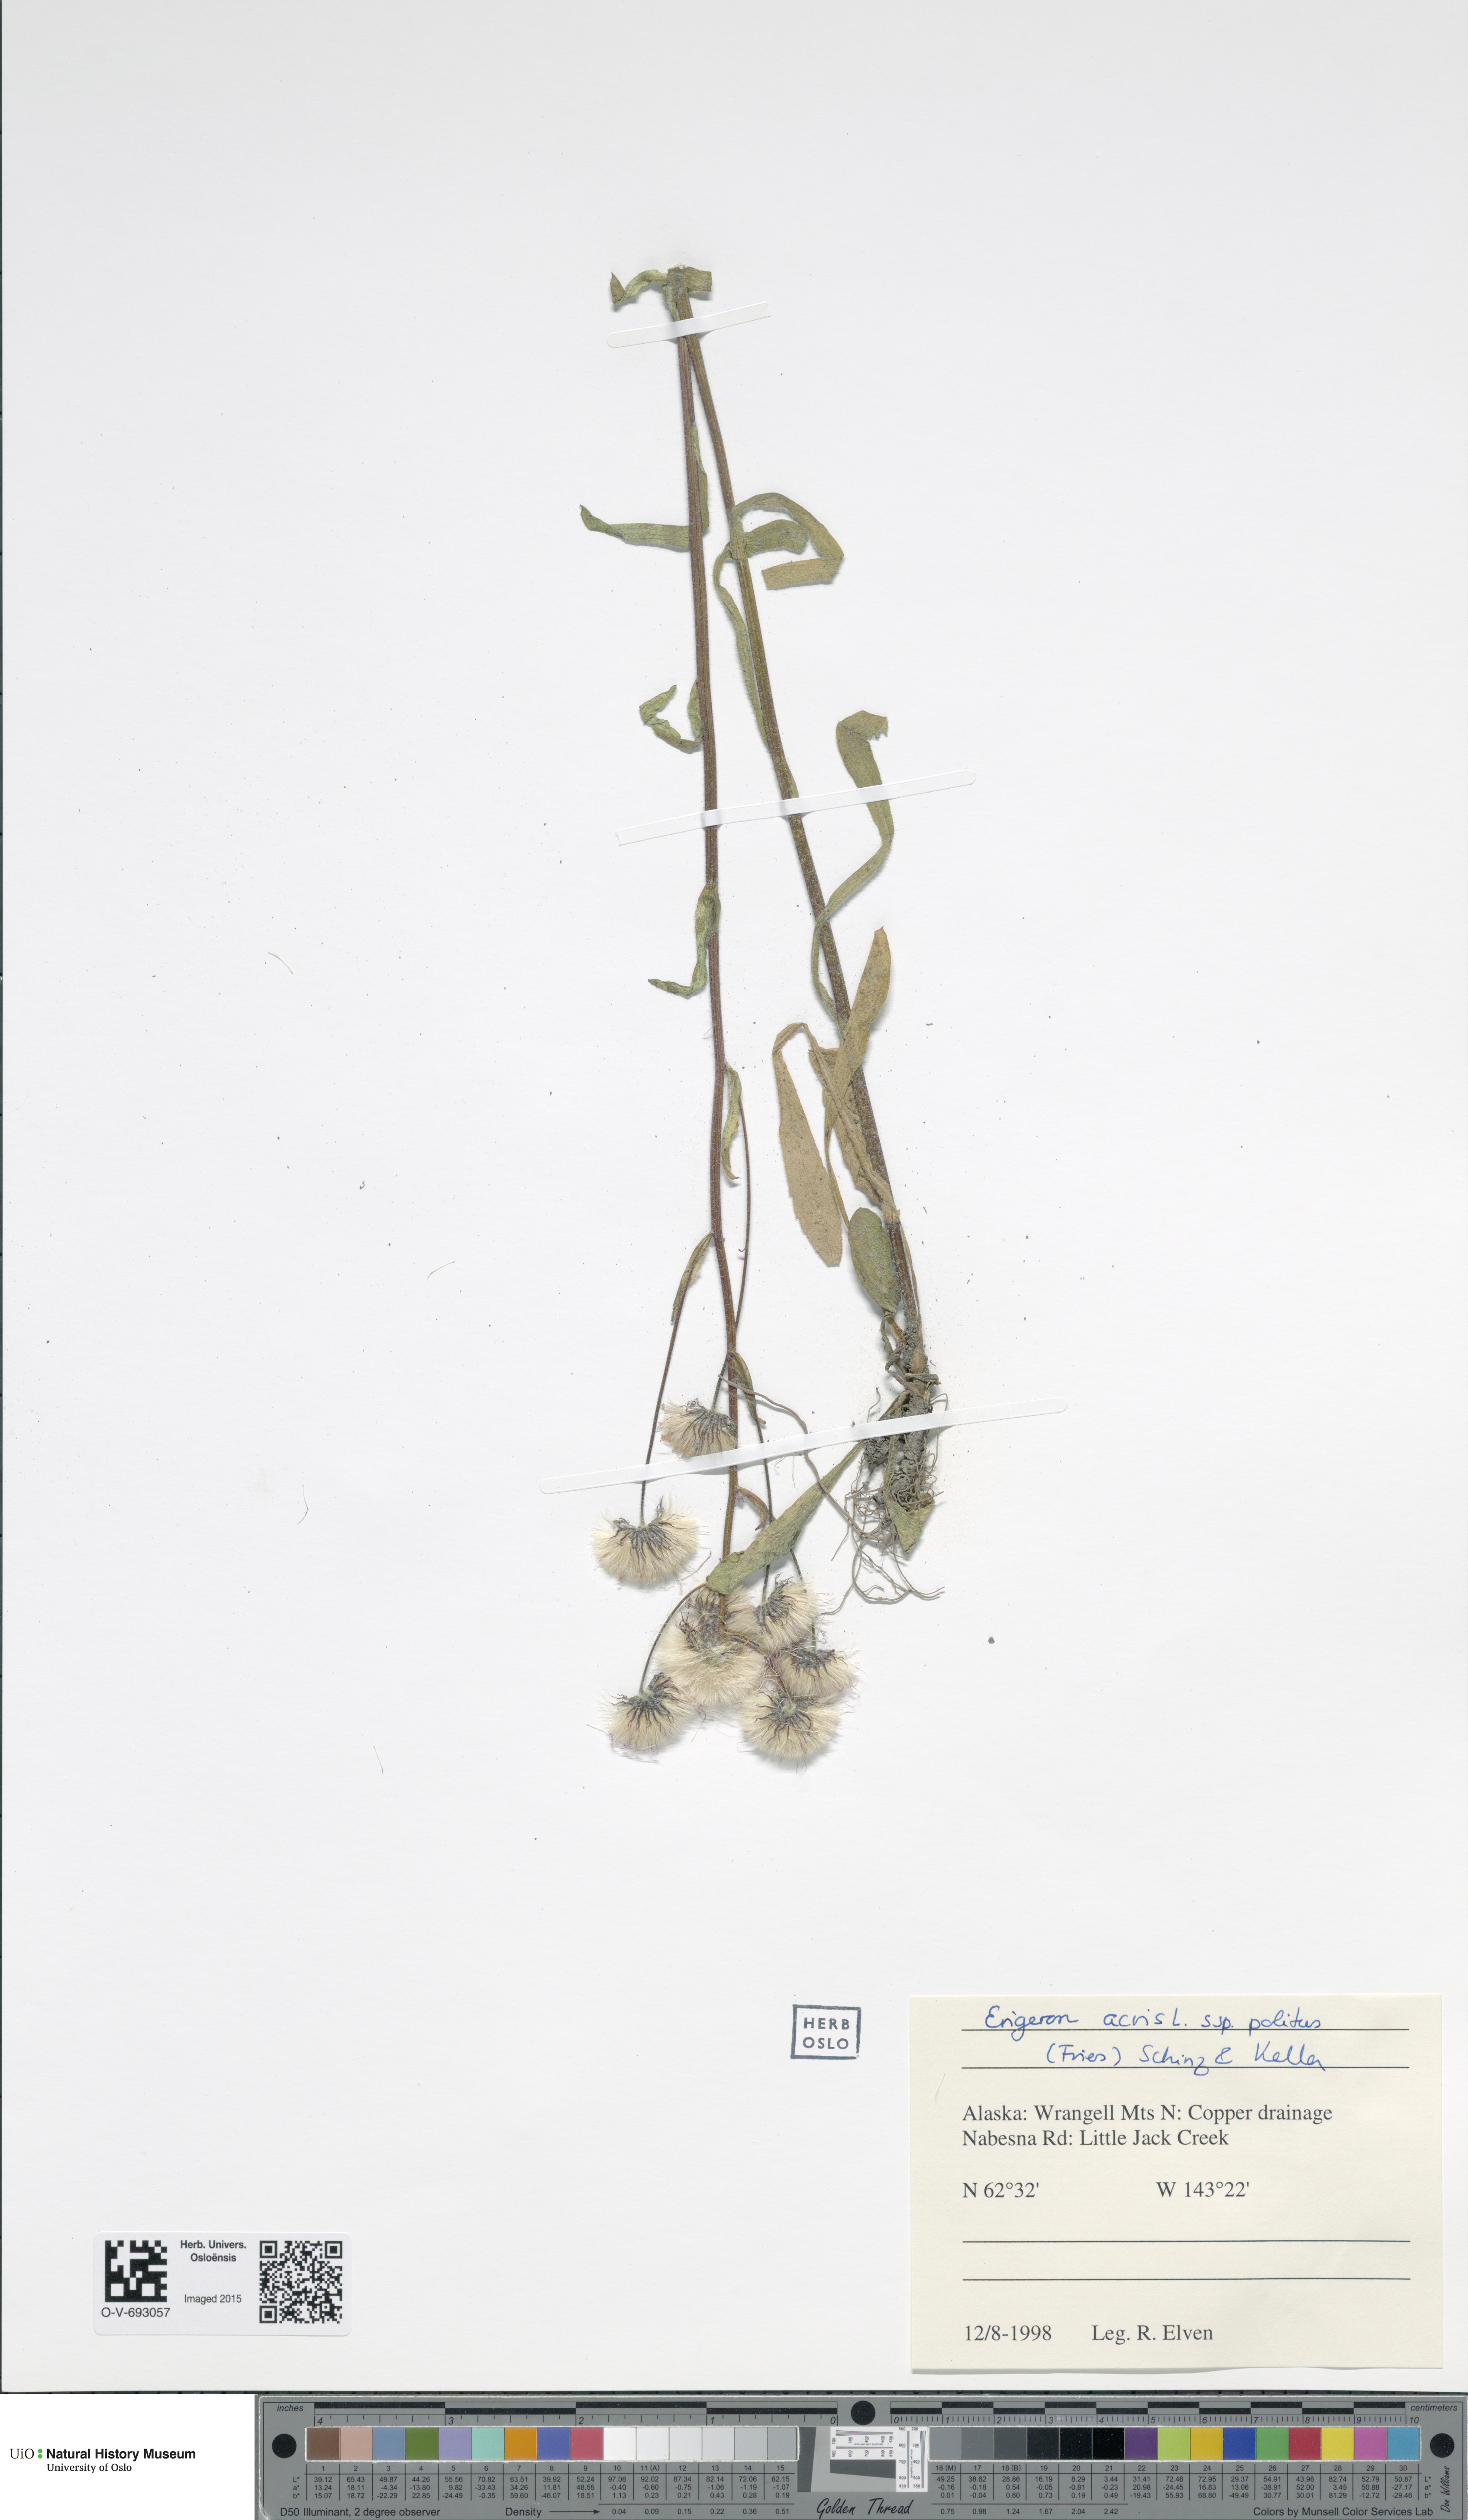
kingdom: Plantae
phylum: Tracheophyta
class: Magnoliopsida
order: Asterales
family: Asteraceae
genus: Erigeron
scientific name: Erigeron politus
